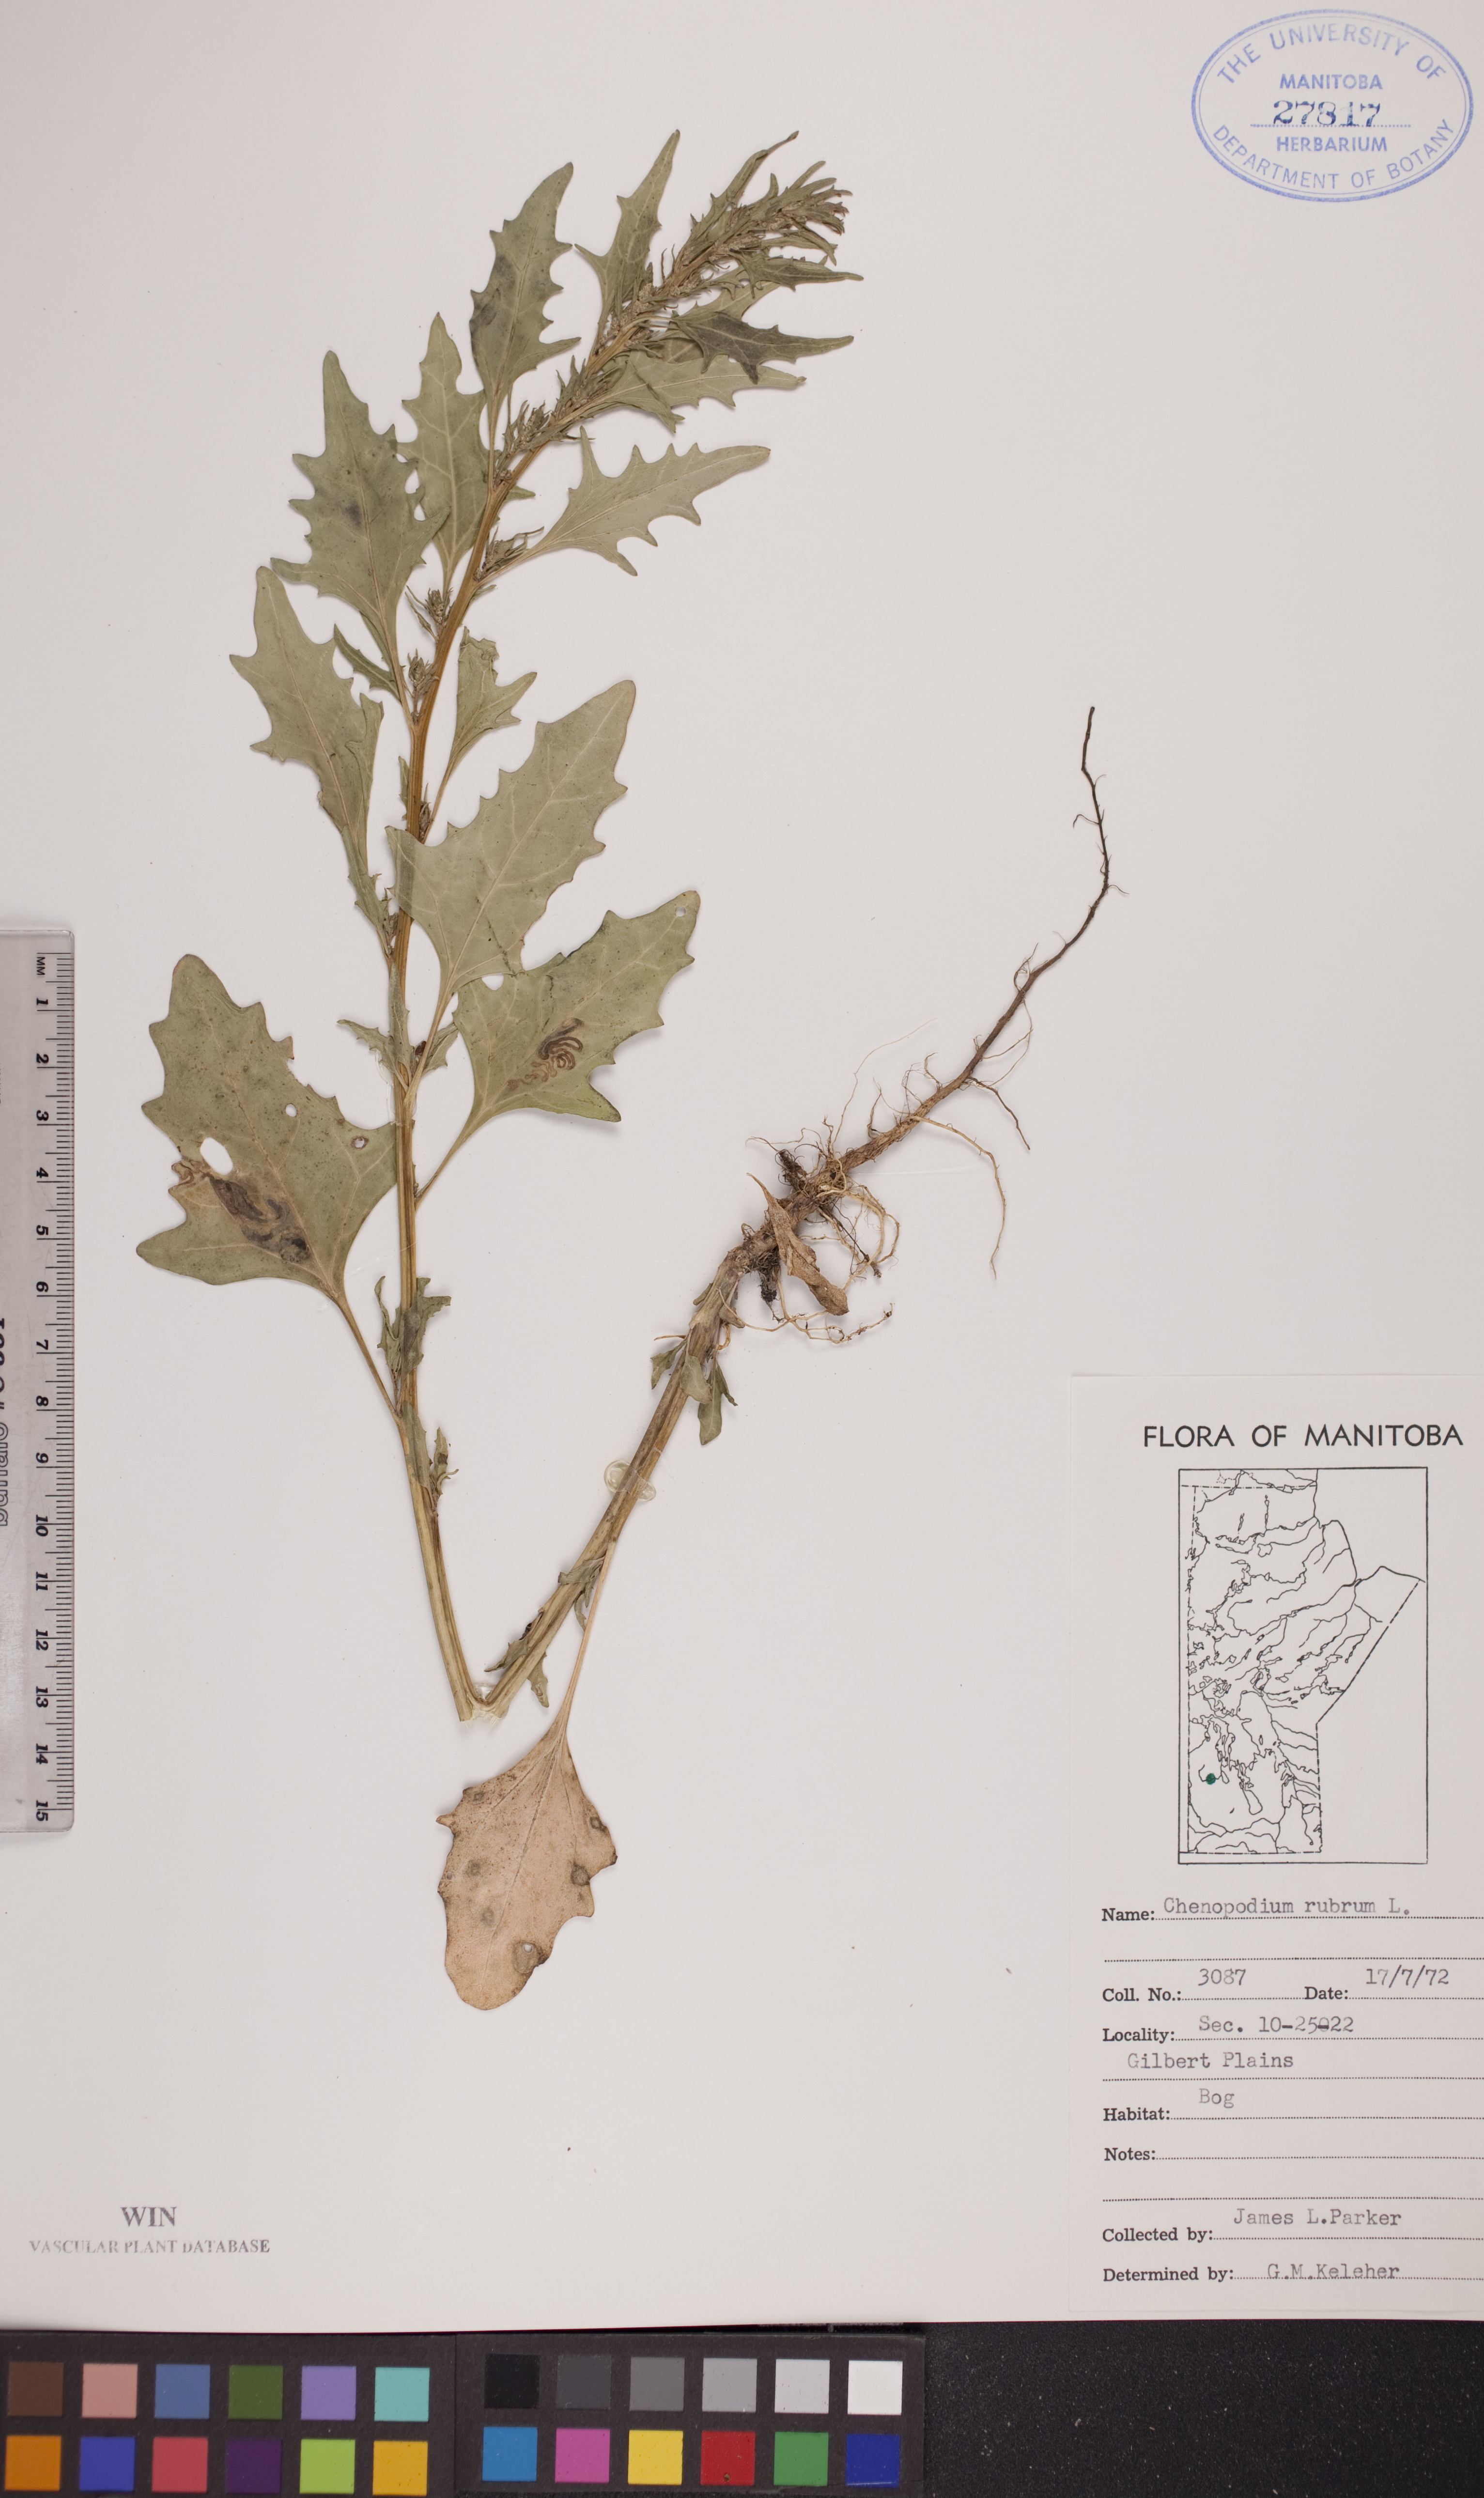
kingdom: Plantae
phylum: Tracheophyta
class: Magnoliopsida
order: Caryophyllales
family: Amaranthaceae
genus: Oxybasis
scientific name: Oxybasis rubra
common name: Red goosefoot
